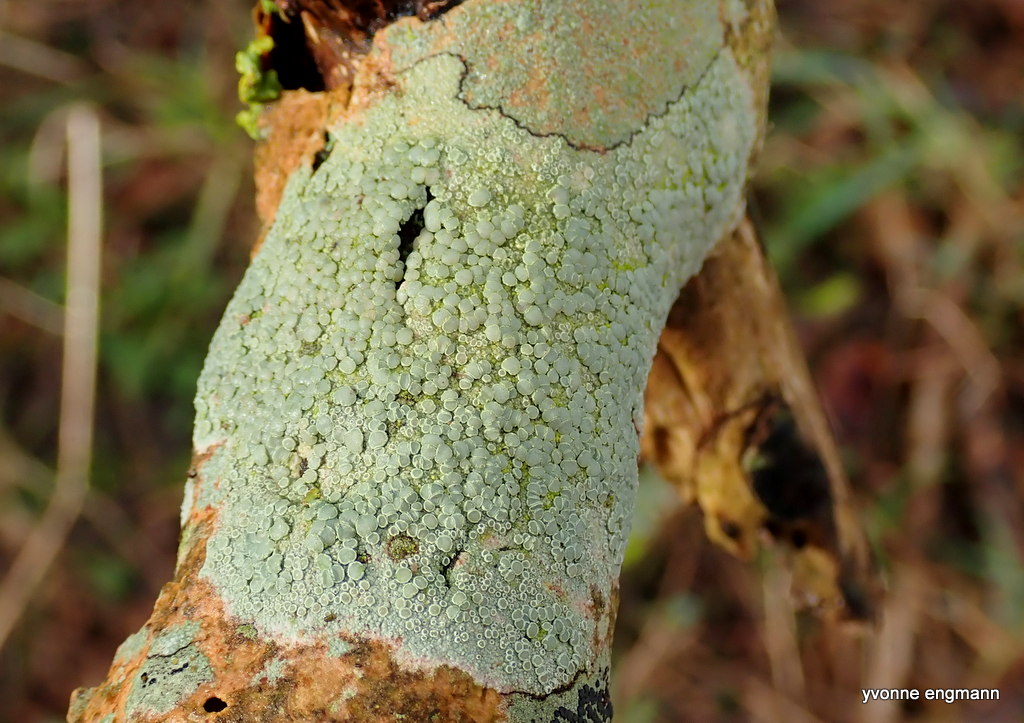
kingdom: Fungi
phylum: Ascomycota
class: Lecanoromycetes
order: Lecanorales
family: Lecanoraceae
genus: Glaucomaria
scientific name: Glaucomaria carpinea
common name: hviddugget kantskivelav
